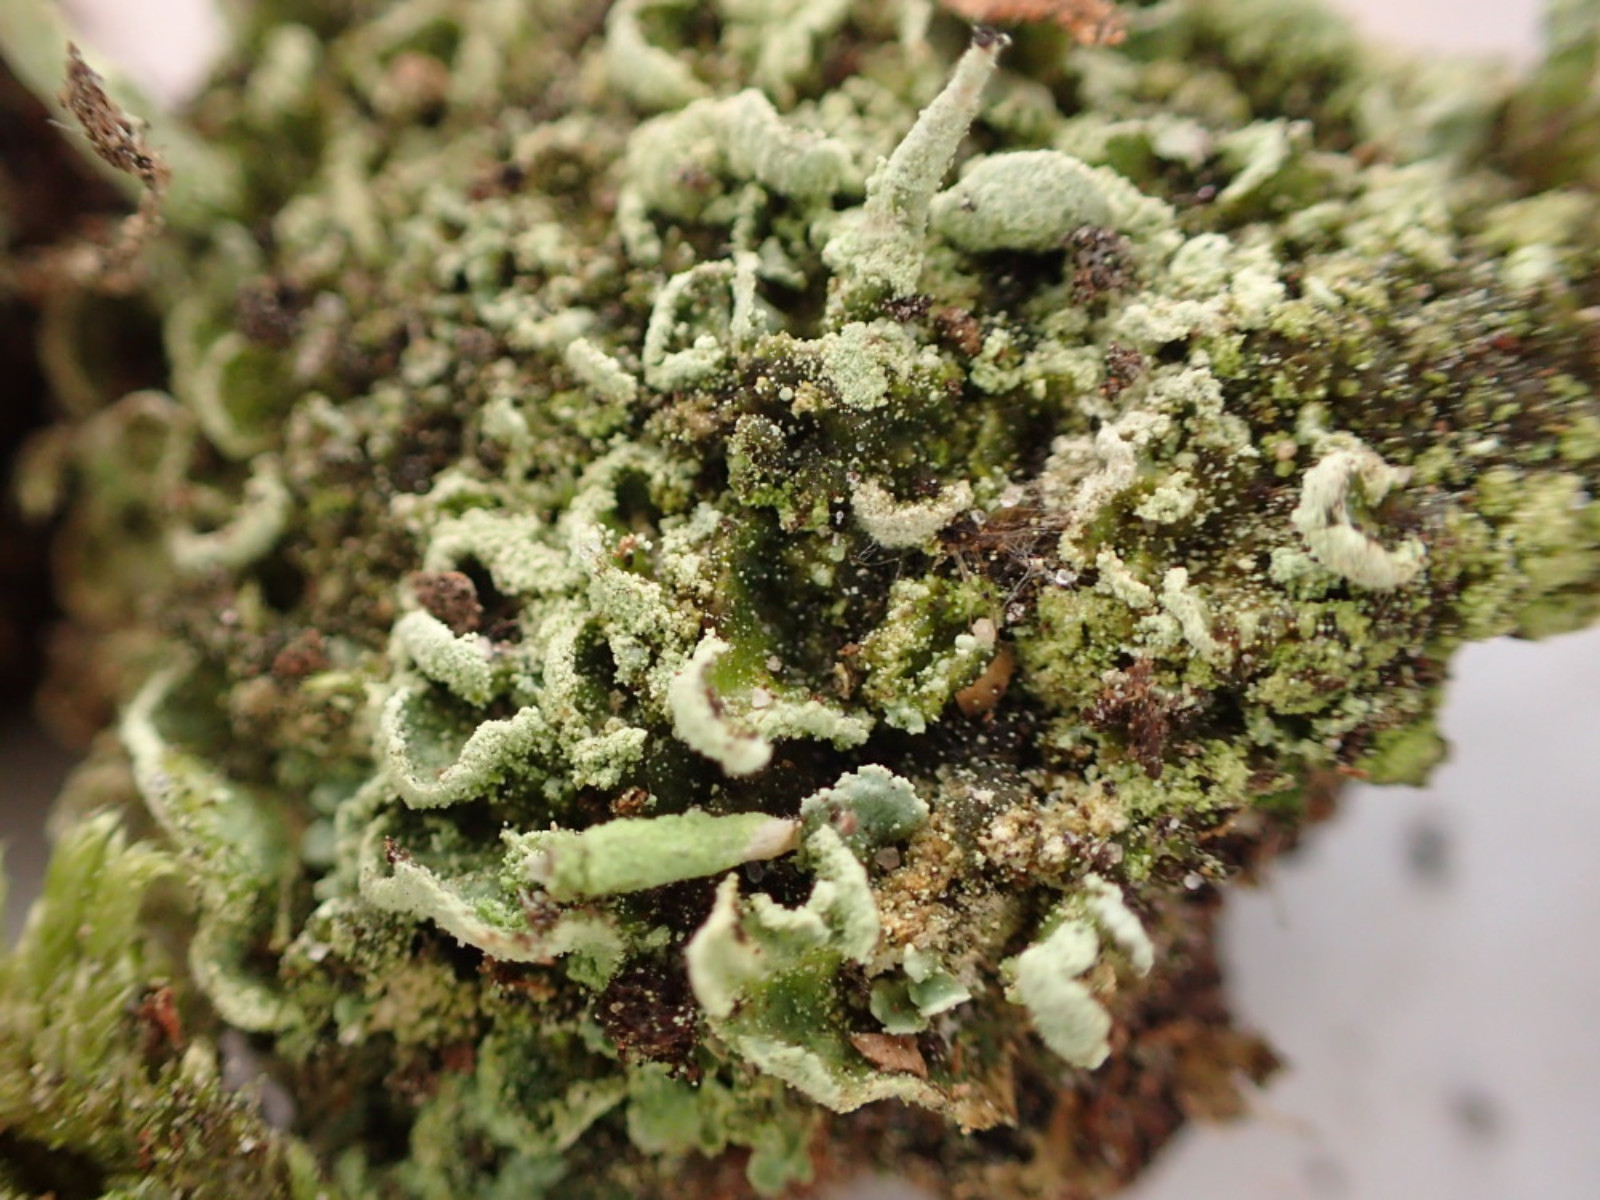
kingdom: Fungi
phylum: Ascomycota
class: Lecanoromycetes
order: Lecanorales
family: Cladoniaceae
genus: Cladonia
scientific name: Cladonia digitata
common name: finger-bægerlav
